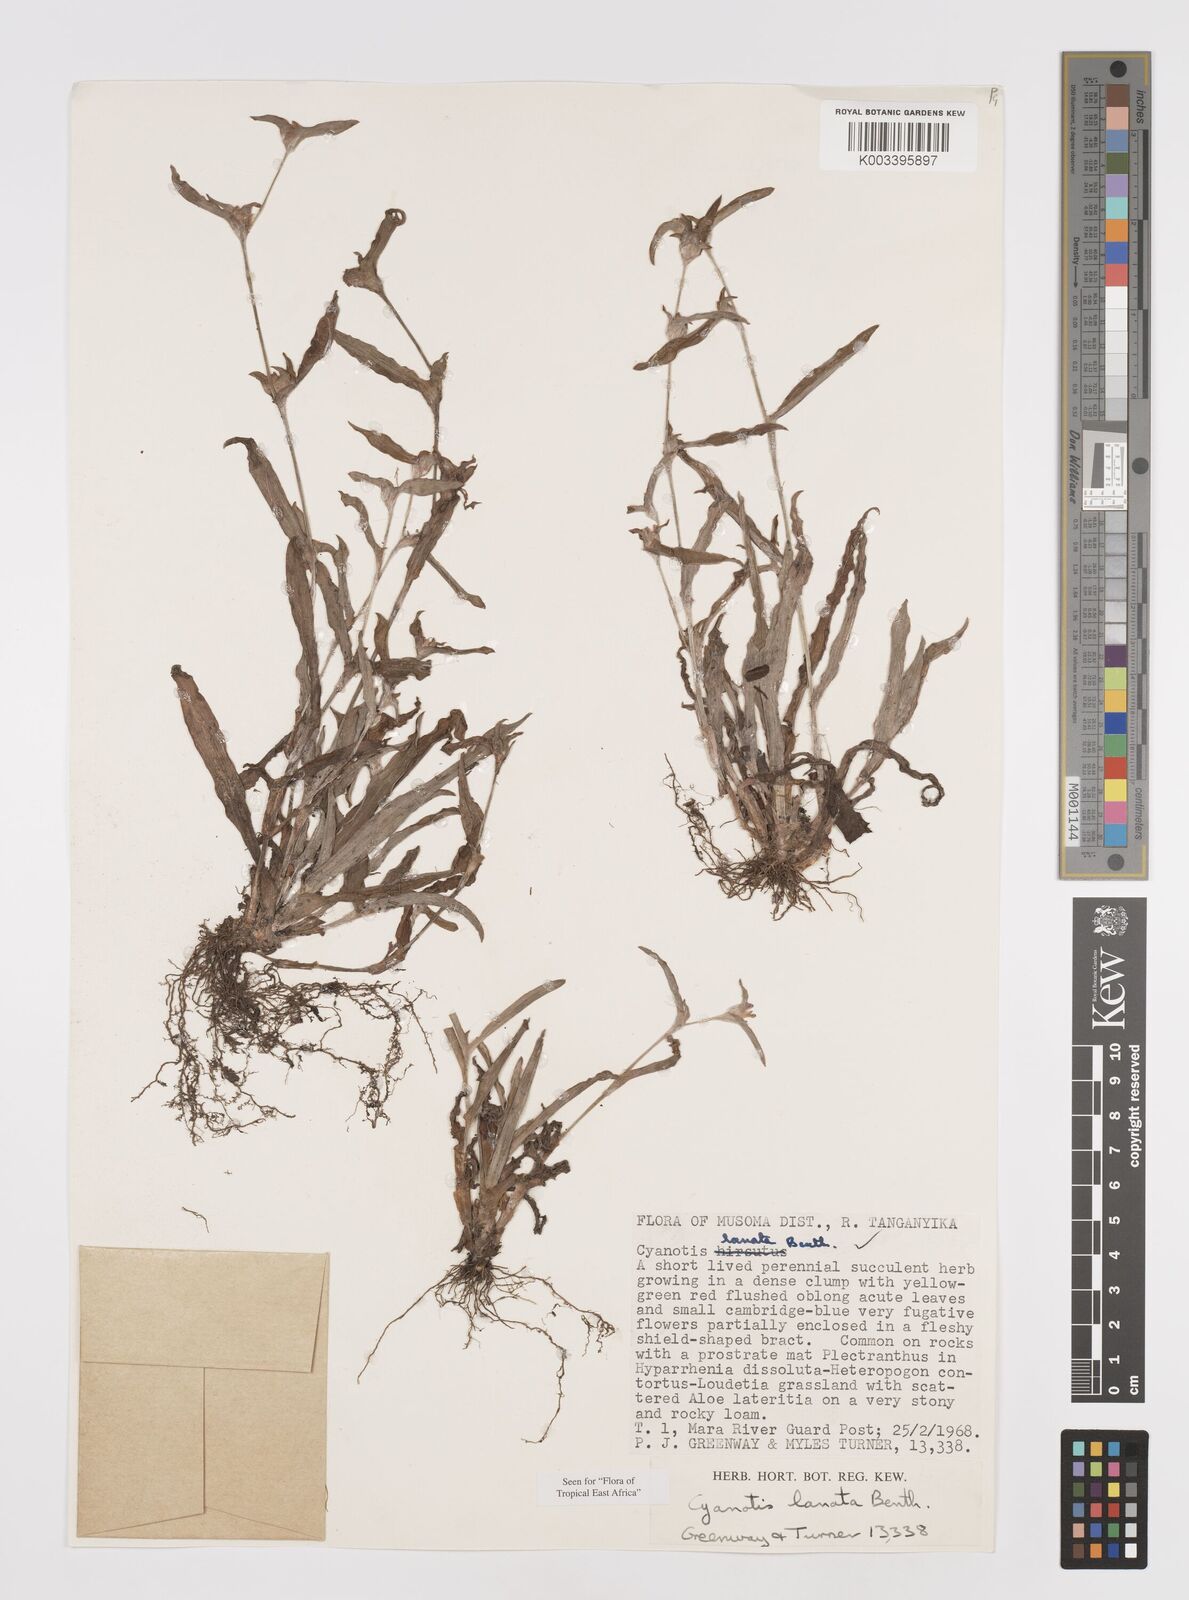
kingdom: Plantae
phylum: Tracheophyta
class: Liliopsida
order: Commelinales
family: Commelinaceae
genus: Cyanotis
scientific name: Cyanotis lanata
